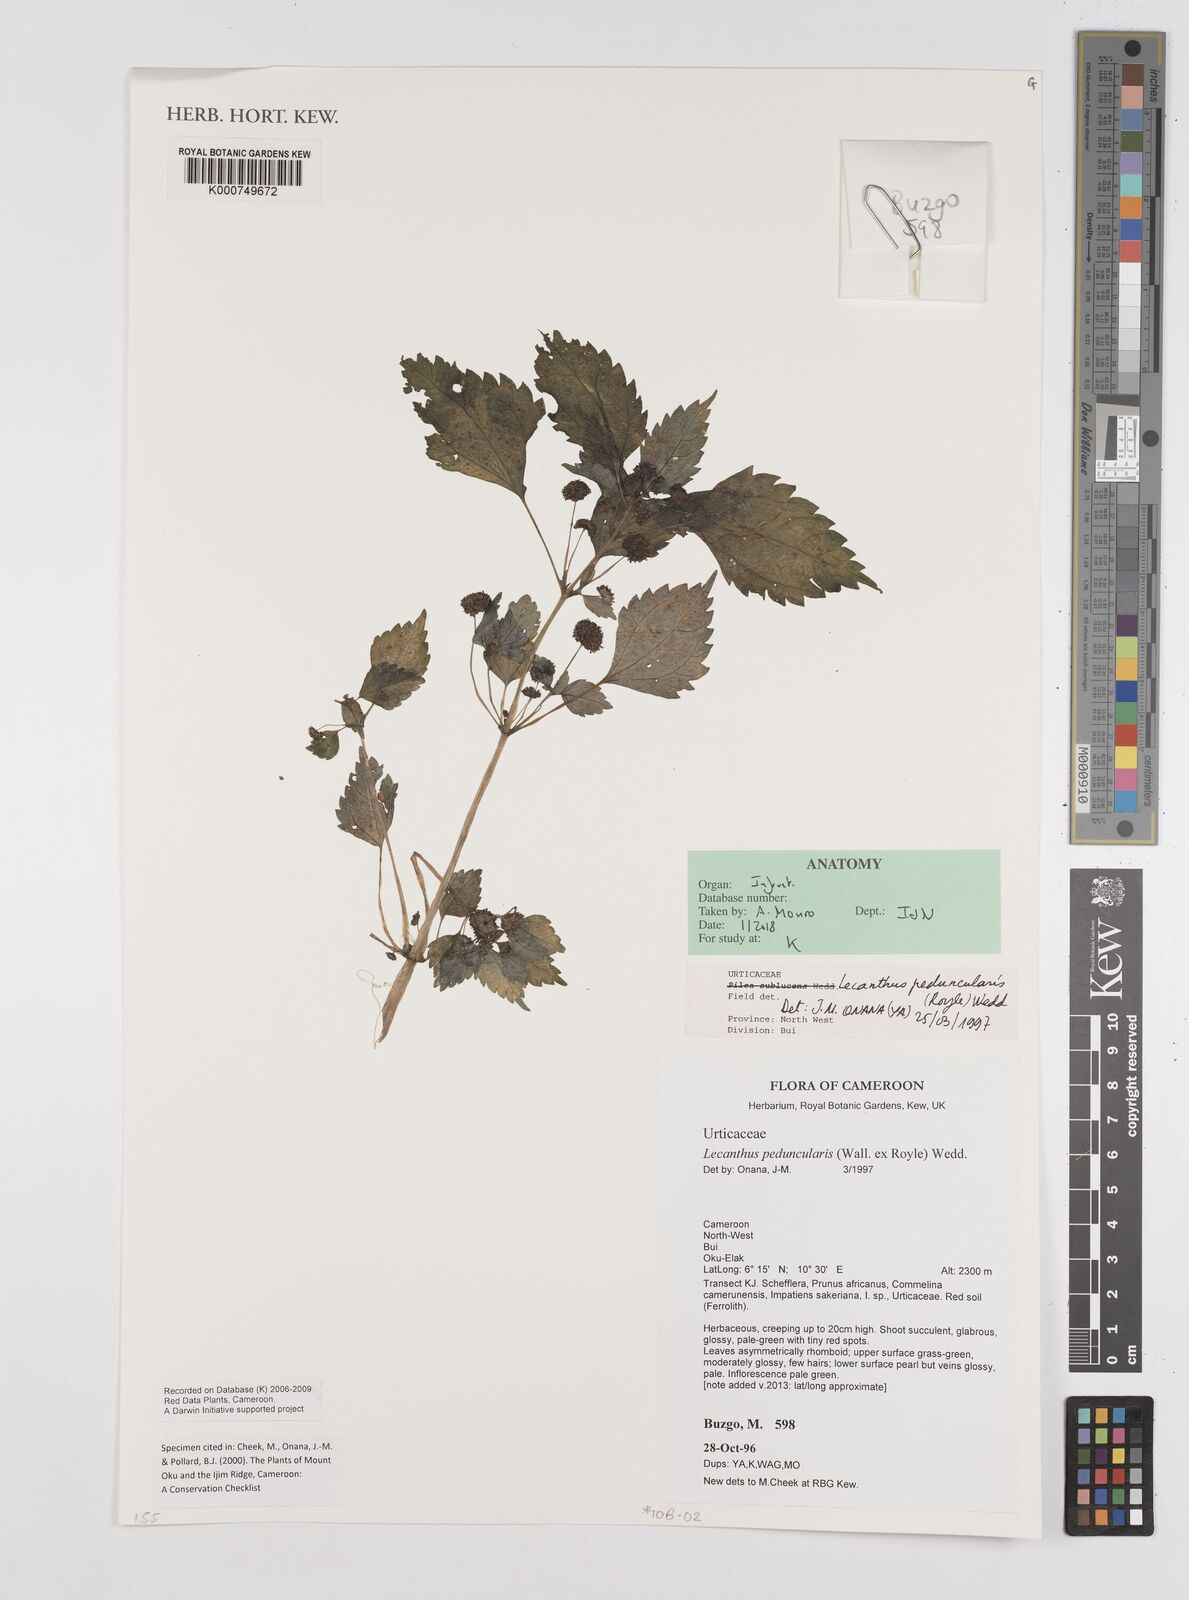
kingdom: Plantae
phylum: Tracheophyta
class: Magnoliopsida
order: Rosales
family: Urticaceae
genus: Lecanthus
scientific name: Lecanthus peduncularis
